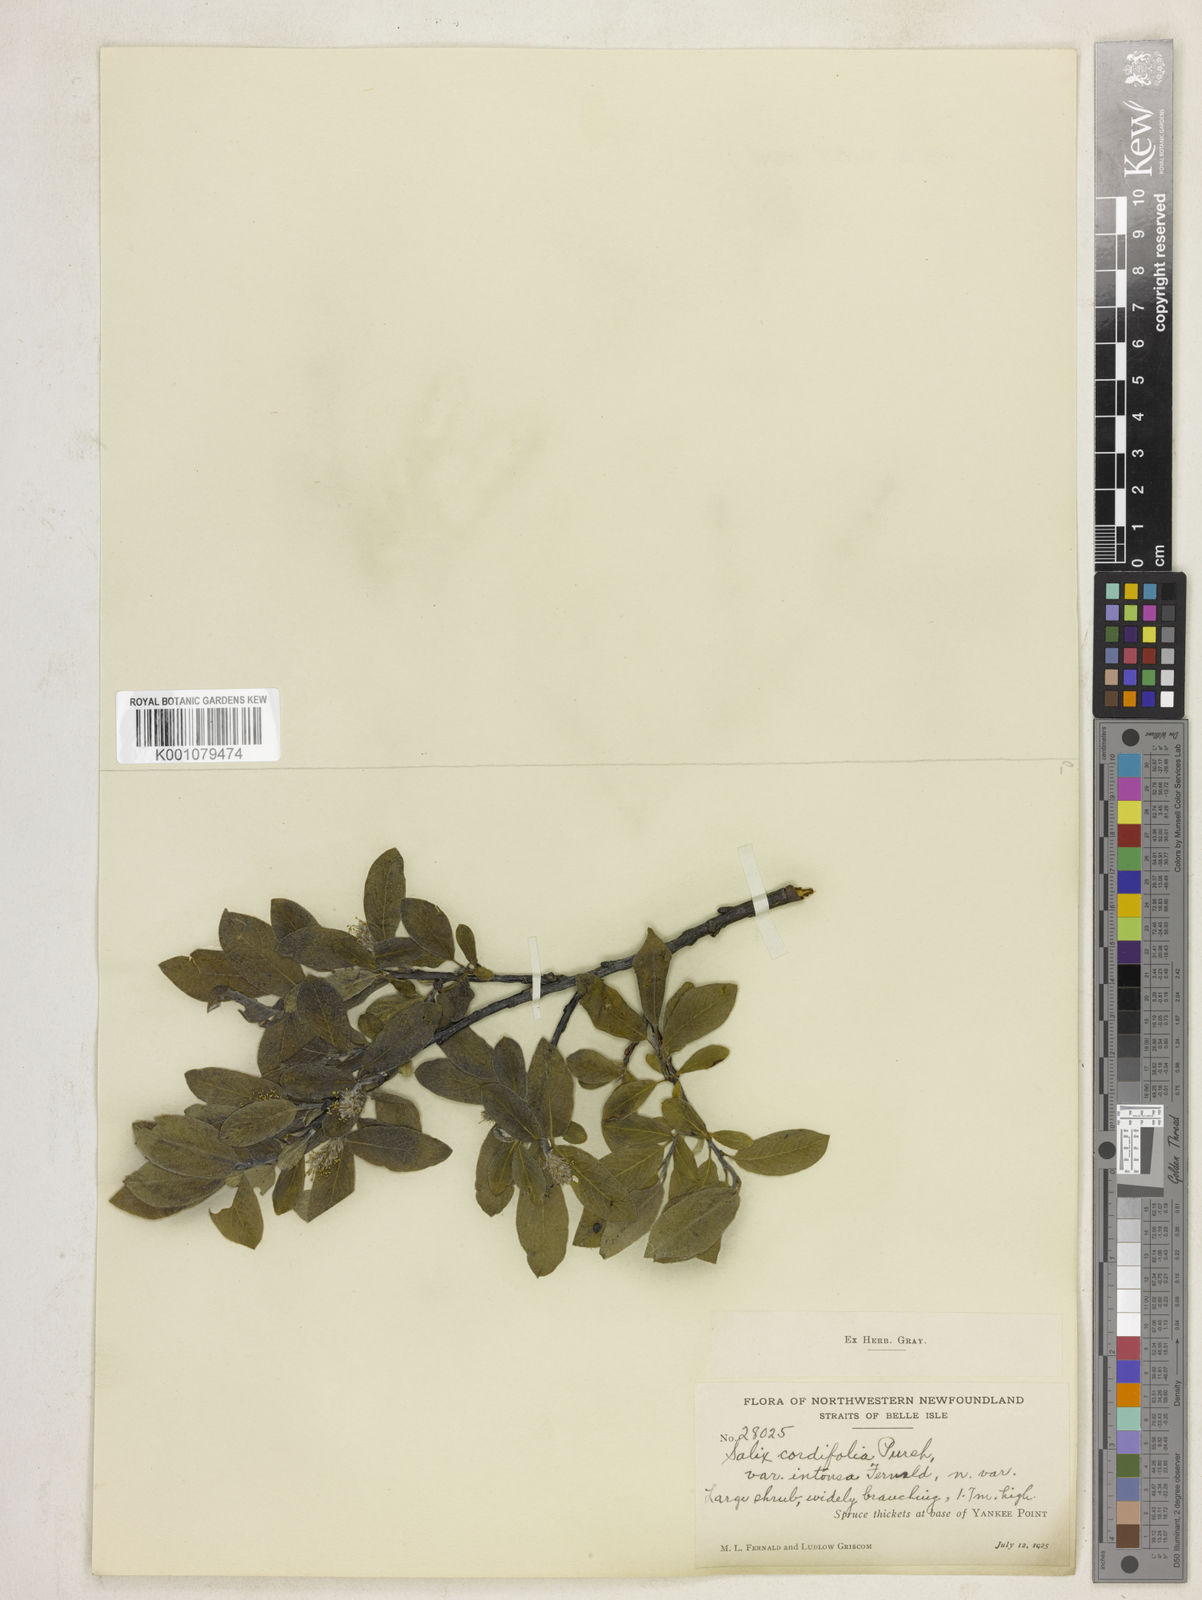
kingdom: Plantae
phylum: Tracheophyta
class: Magnoliopsida
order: Malpighiales
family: Salicaceae
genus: Salix
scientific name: Salix glauca
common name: Glaucous willow
